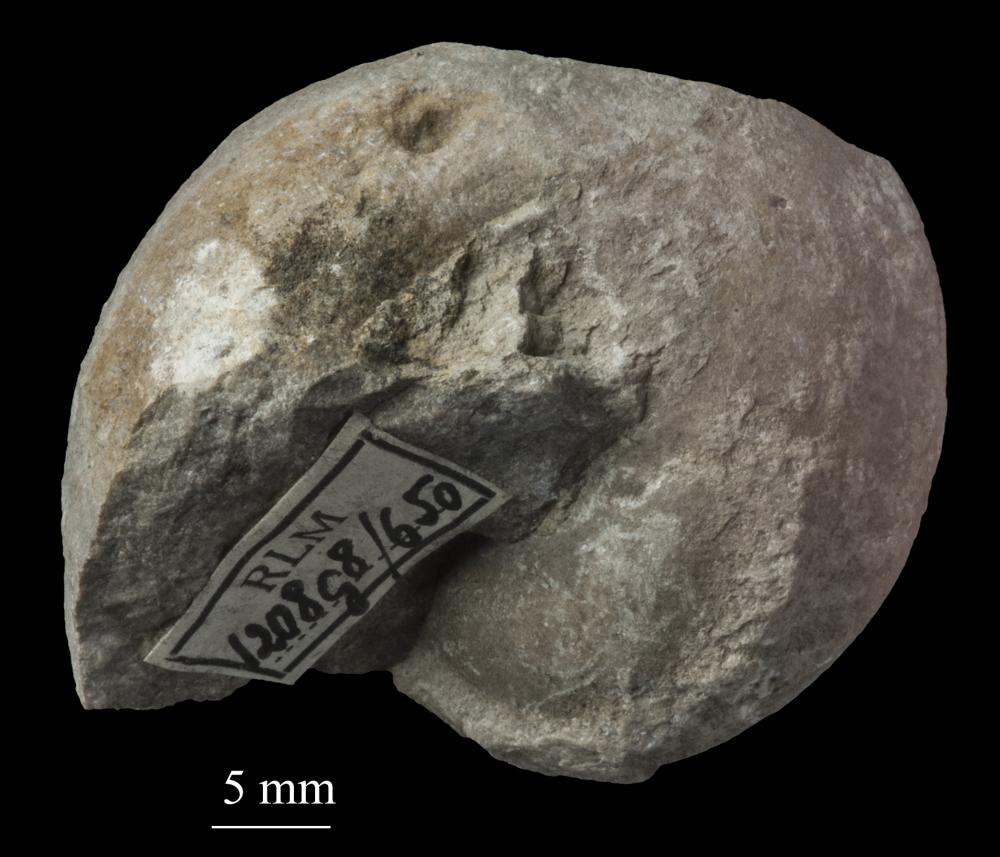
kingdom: Animalia
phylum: Mollusca
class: Gastropoda
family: Lophospiridae
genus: Lophospira
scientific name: Lophospira
